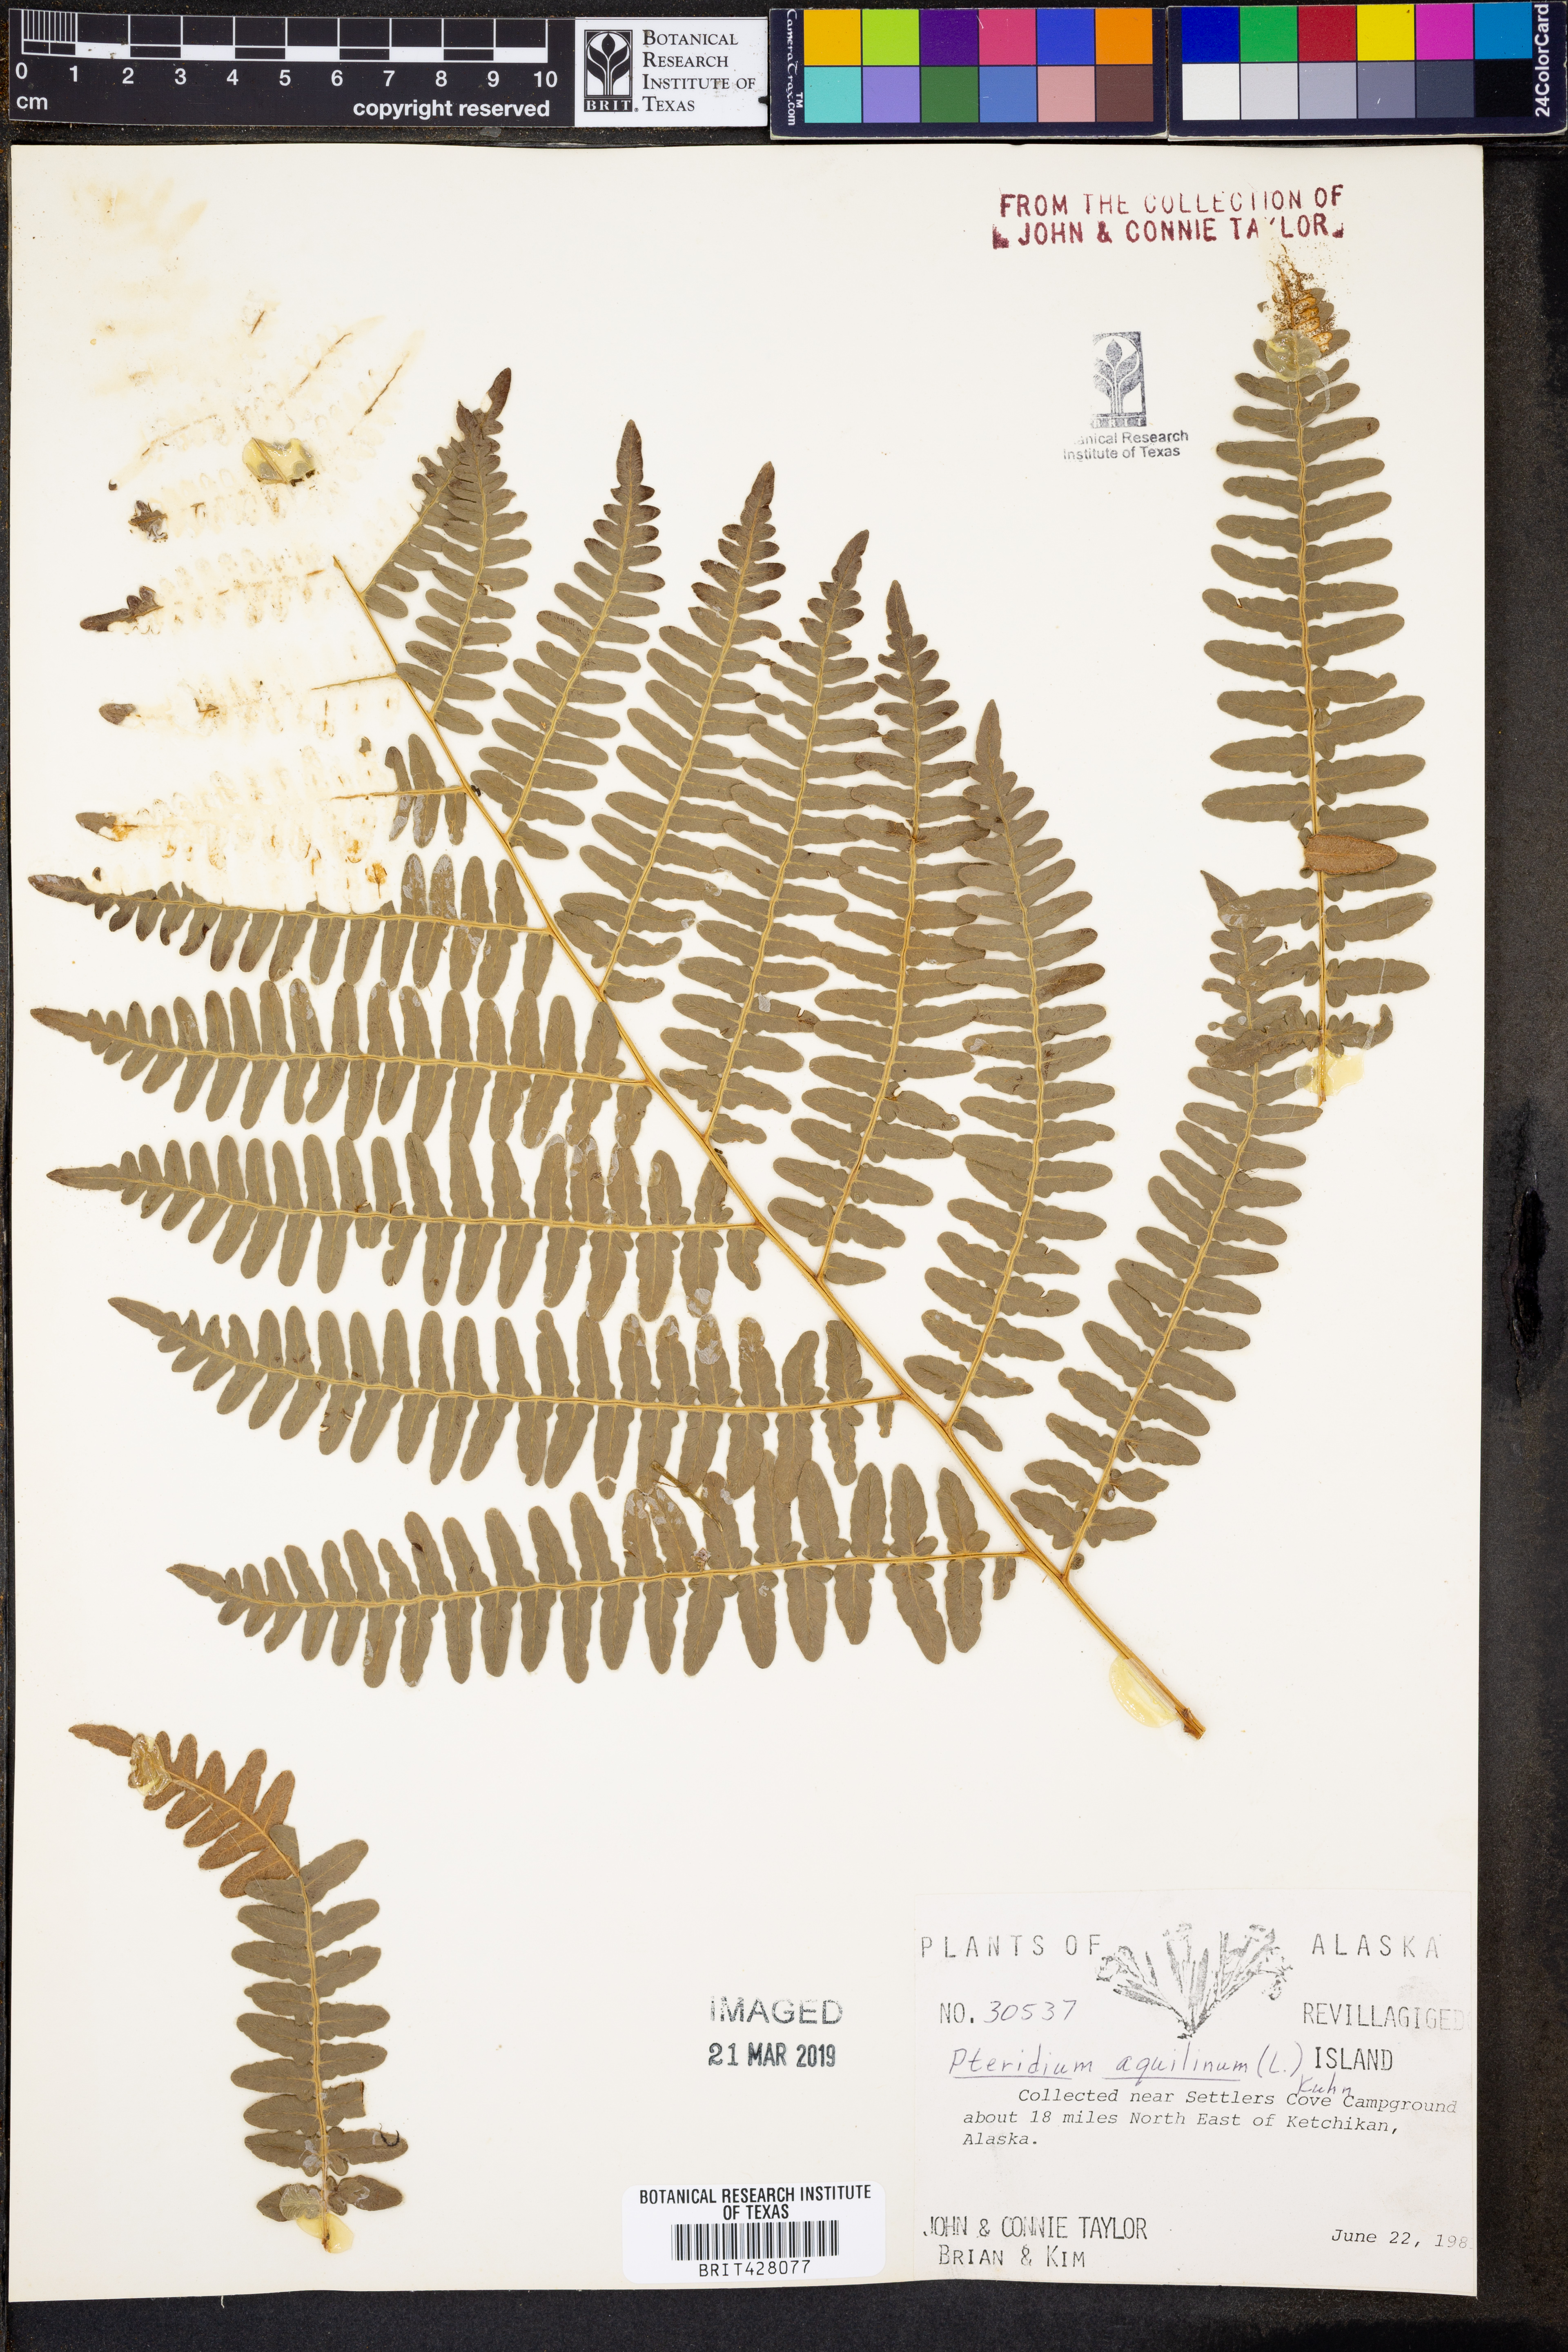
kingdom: Plantae
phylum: Tracheophyta
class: Polypodiopsida
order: Polypodiales
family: Dennstaedtiaceae
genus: Pteridium
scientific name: Pteridium aquilinum
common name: Bracken
